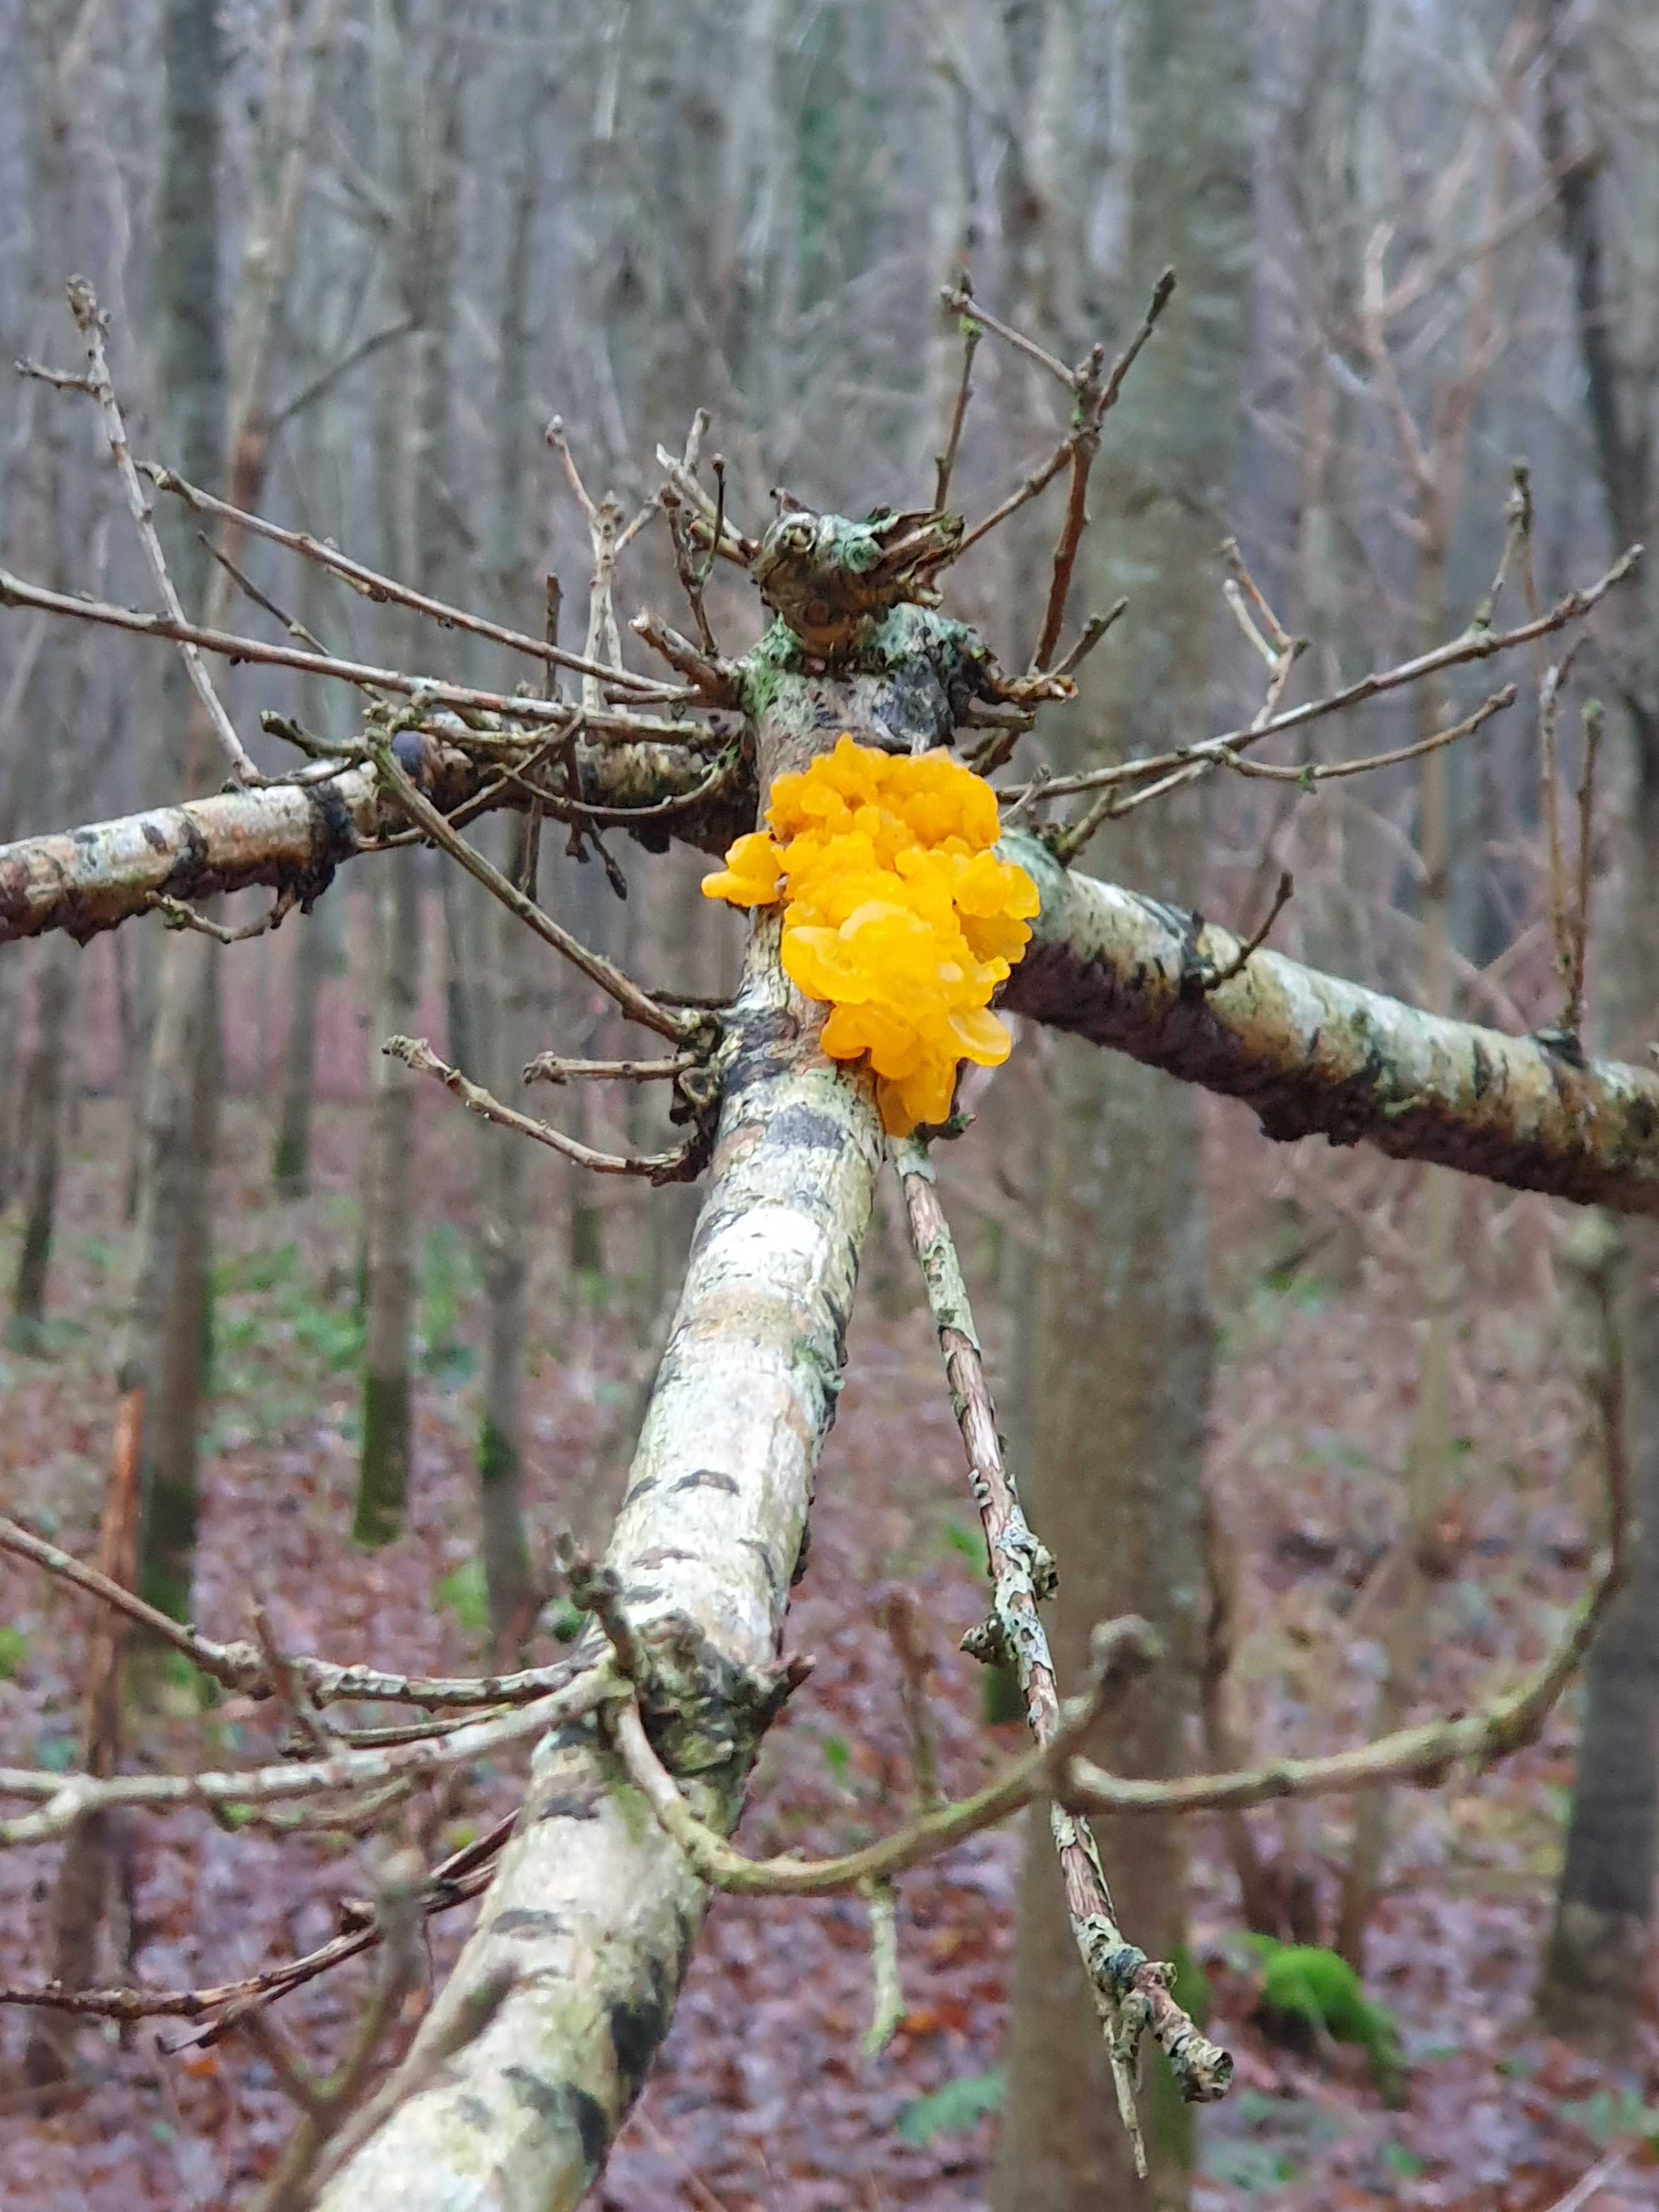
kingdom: Fungi
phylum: Basidiomycota
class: Tremellomycetes
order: Tremellales
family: Tremellaceae
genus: Tremella
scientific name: Tremella mesenterica
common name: gul bævresvamp
